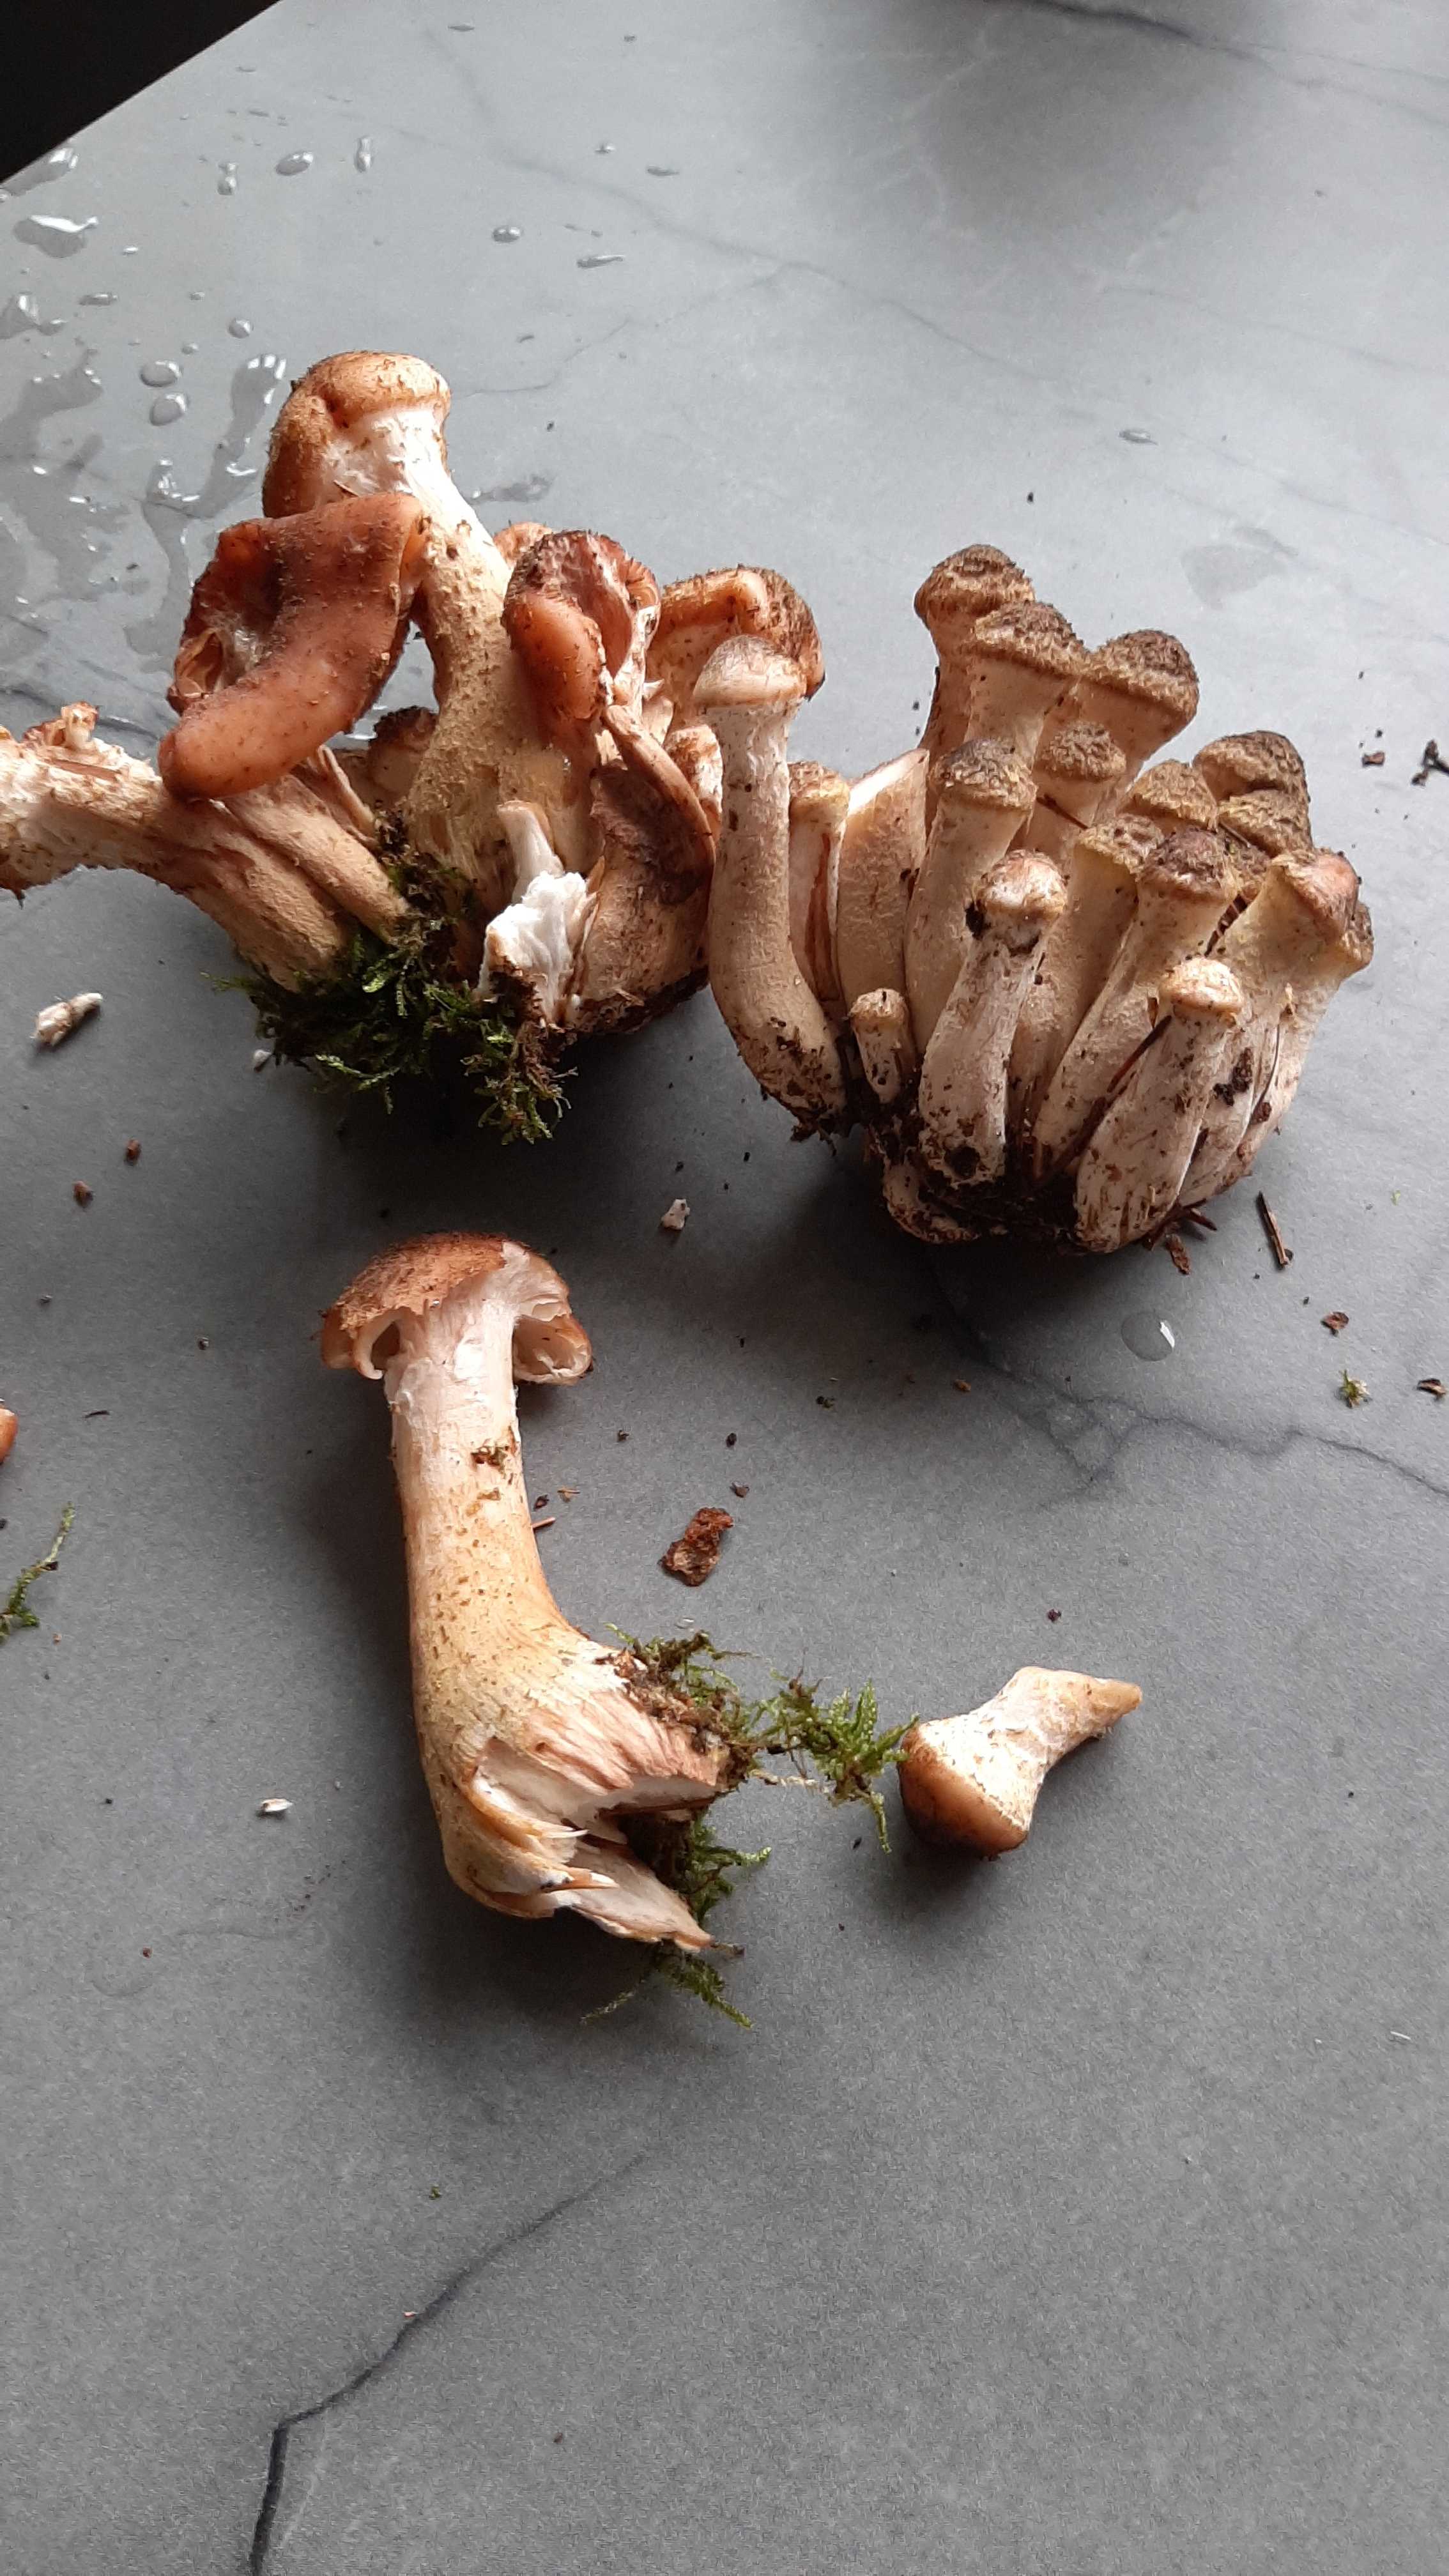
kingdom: Fungi
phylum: Basidiomycota
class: Agaricomycetes
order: Agaricales
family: Physalacriaceae
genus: Armillaria
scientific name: Armillaria ostoyae
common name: mørk honningsvamp
